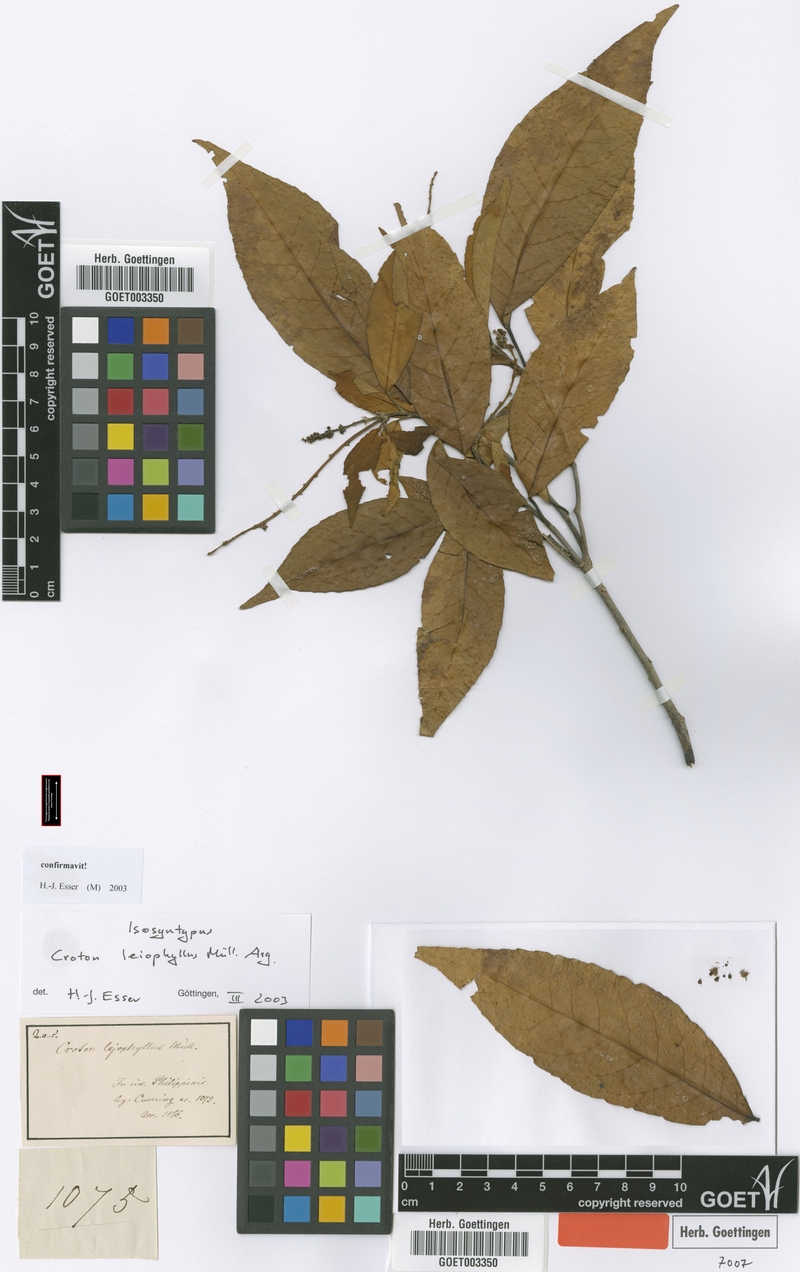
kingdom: Plantae
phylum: Tracheophyta
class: Magnoliopsida
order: Malpighiales
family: Euphorbiaceae
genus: Croton
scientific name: Croton leiophyllus
